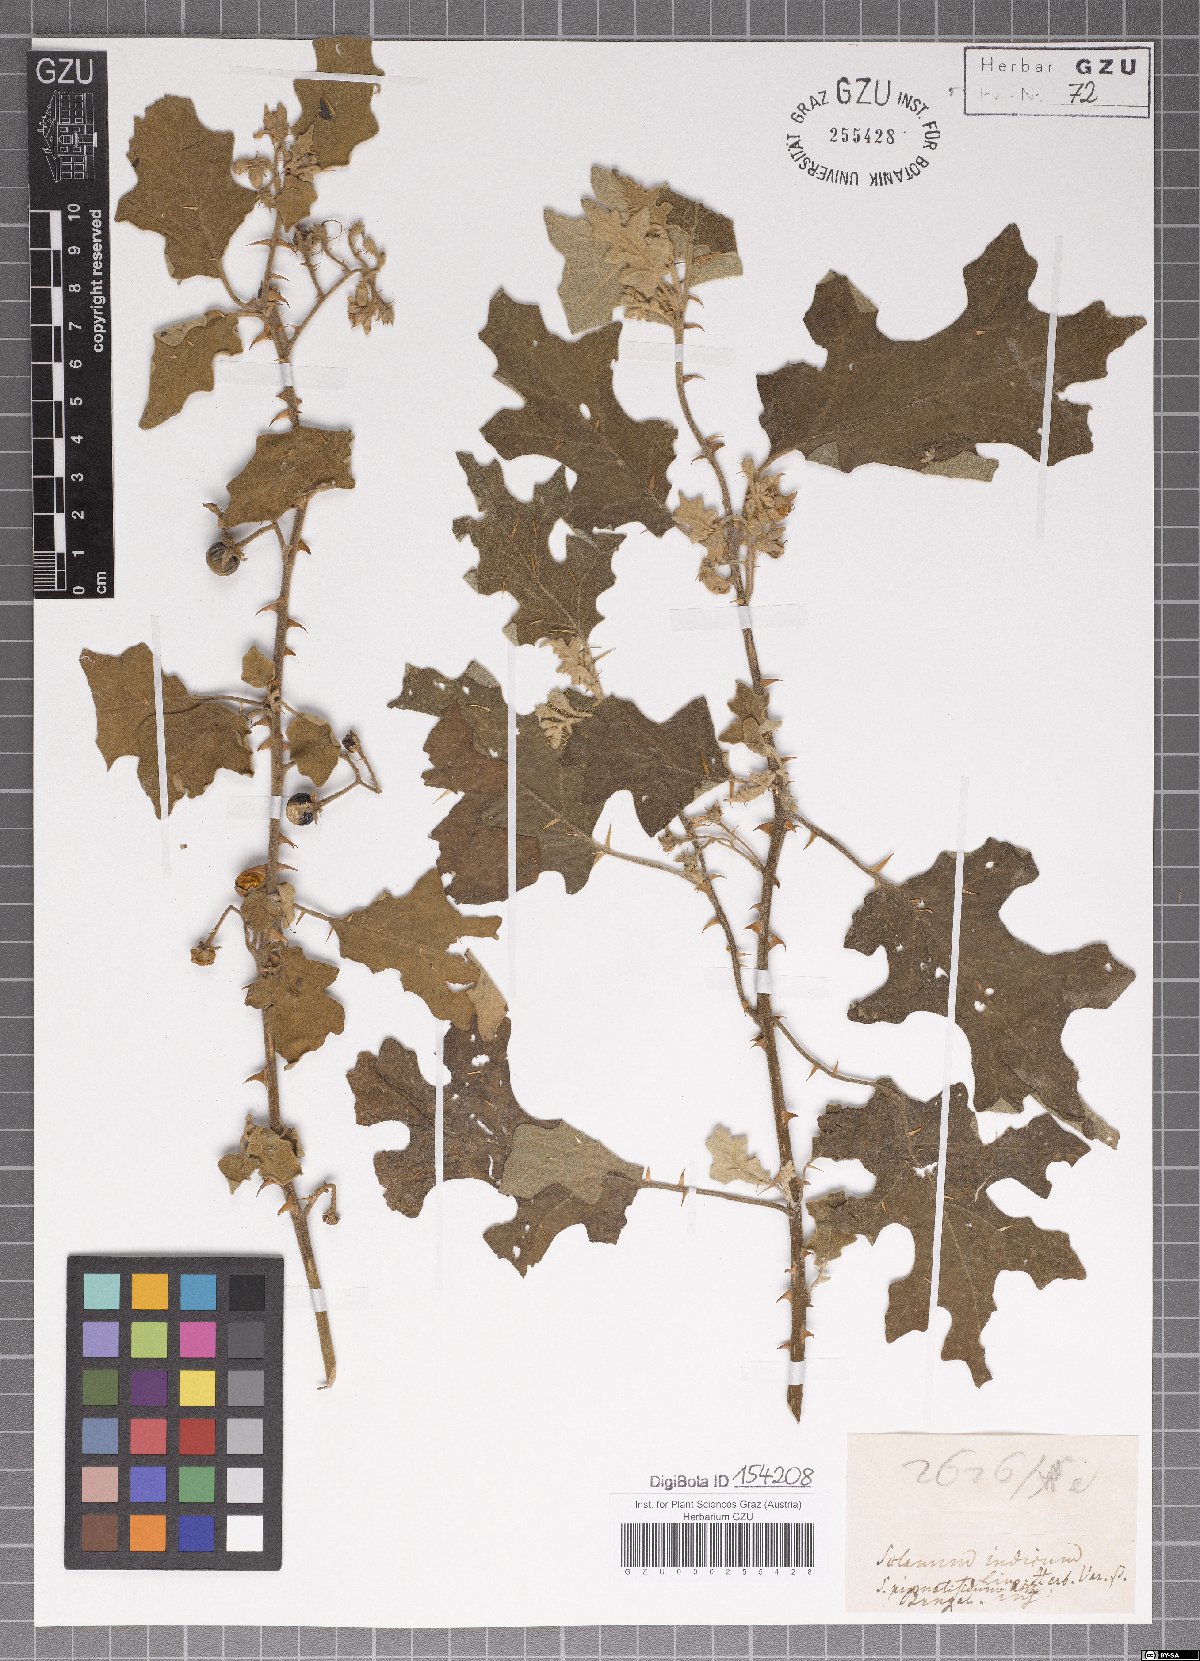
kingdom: Plantae
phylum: Tracheophyta
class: Magnoliopsida
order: Solanales
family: Solanaceae
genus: Solanum
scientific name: Solanum violaceum
